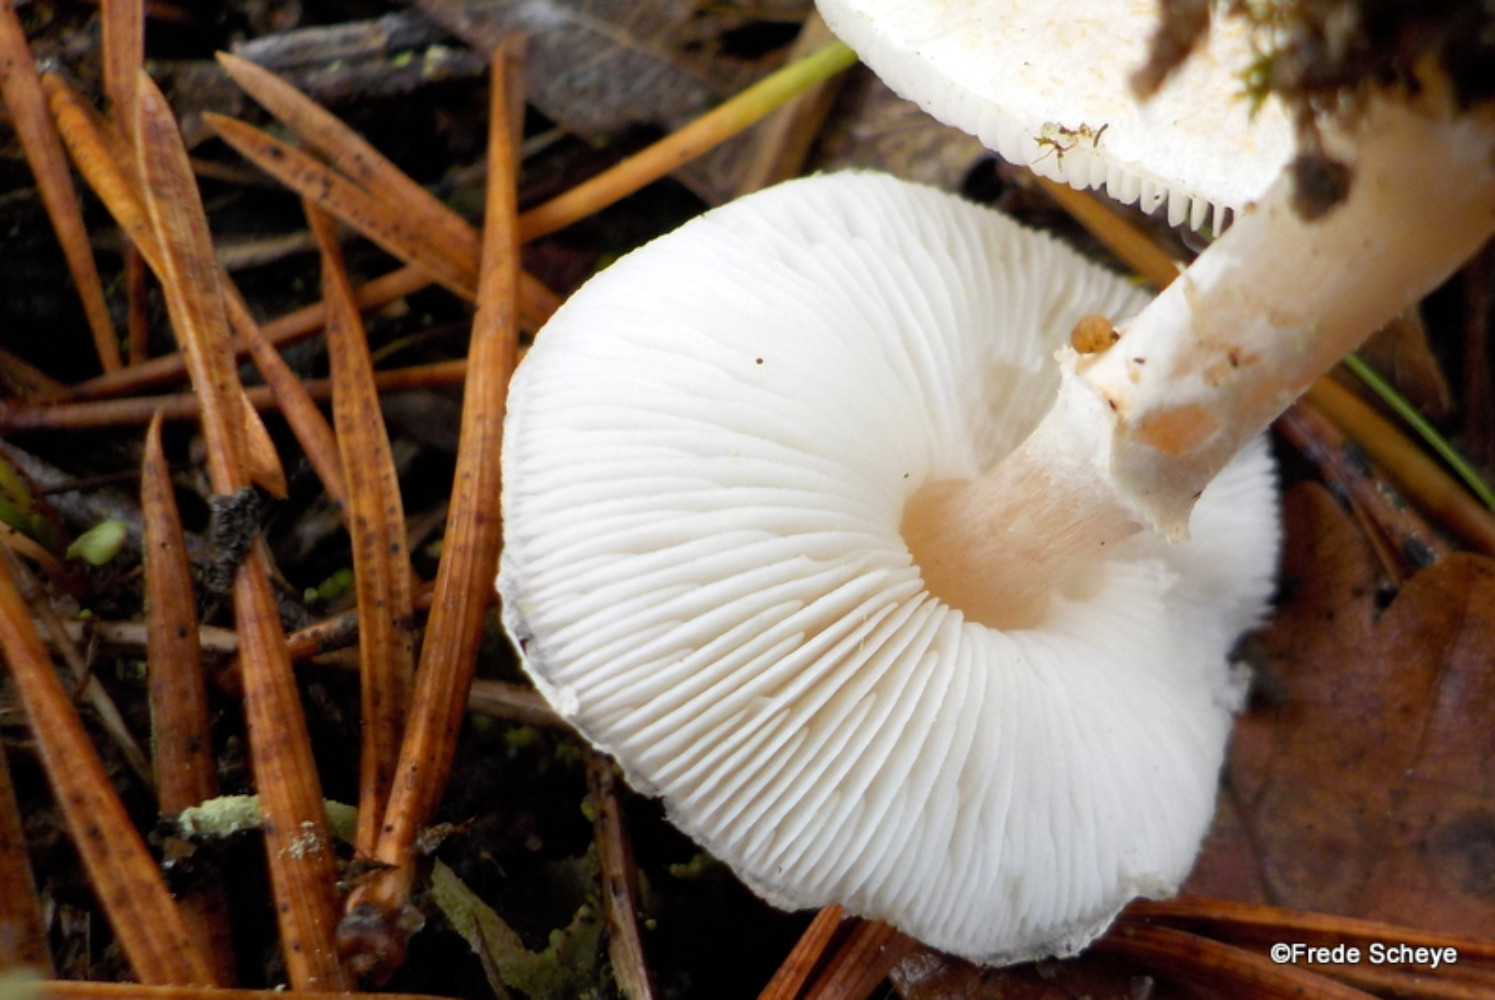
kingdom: Fungi
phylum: Basidiomycota
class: Agaricomycetes
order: Agaricales
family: Agaricaceae
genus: Lepiota
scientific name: Lepiota cristata
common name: stinkende parasolhat
